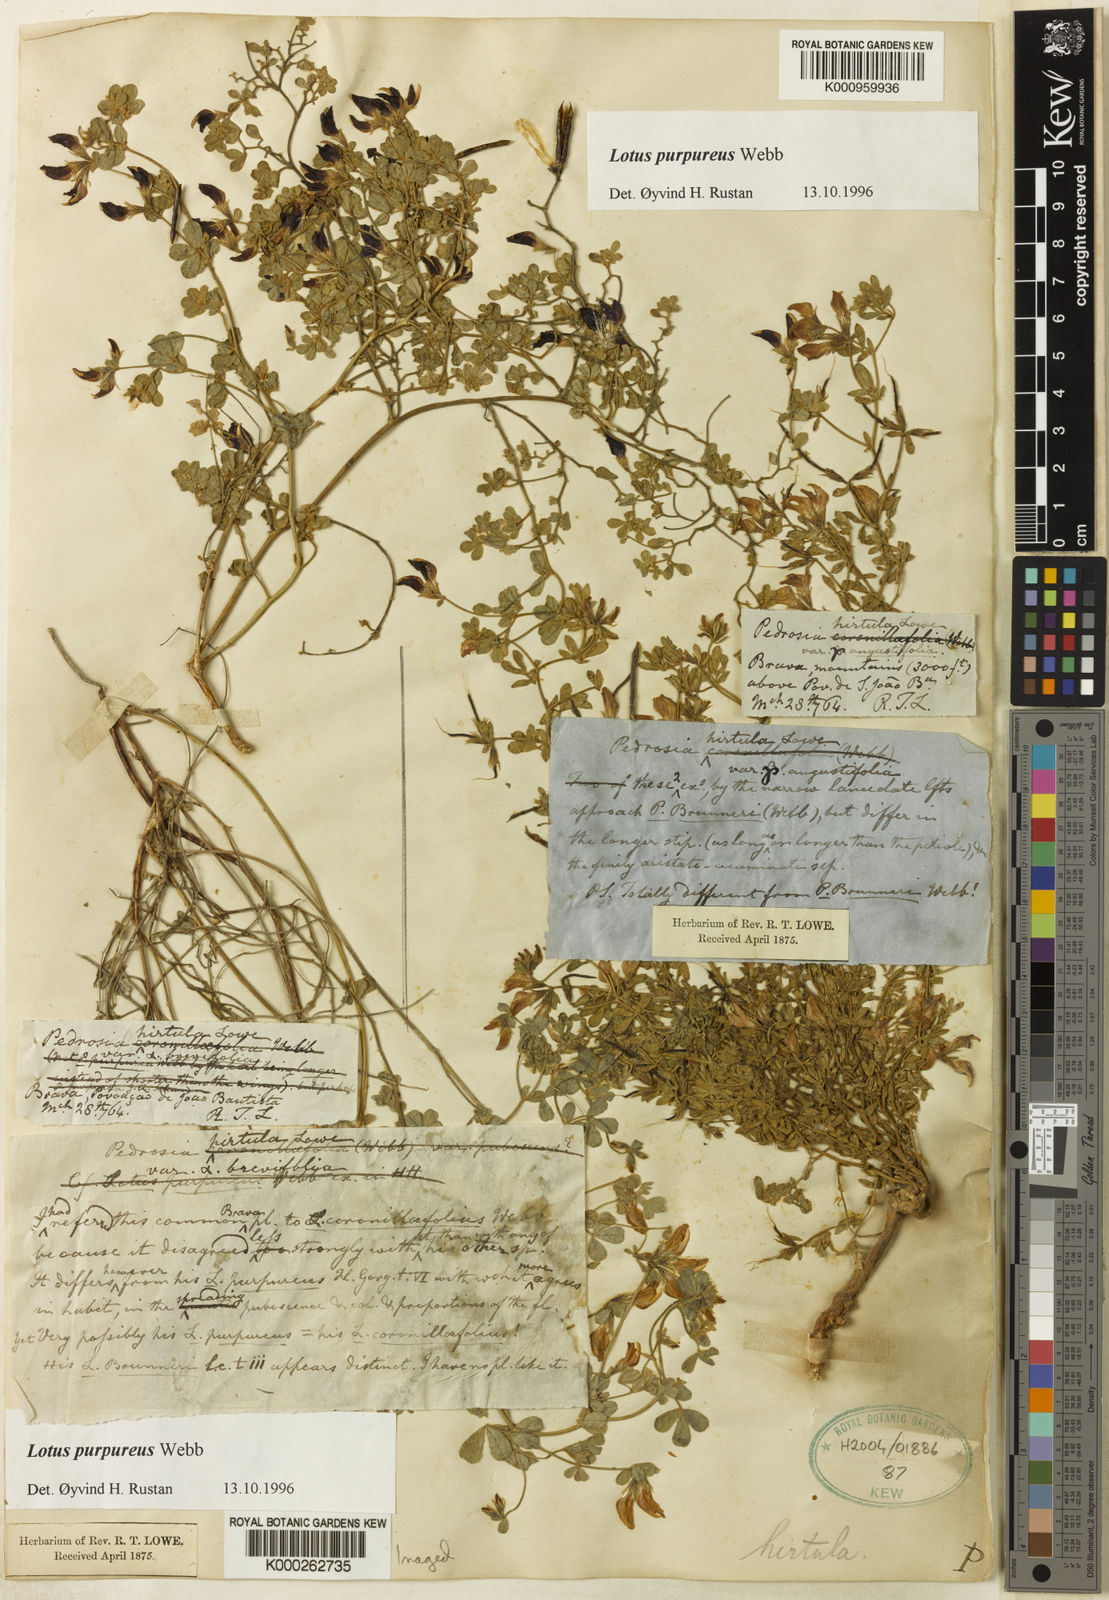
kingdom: Plantae
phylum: Tracheophyta
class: Magnoliopsida
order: Fabales
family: Fabaceae
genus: Lotus
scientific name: Lotus purpureus
